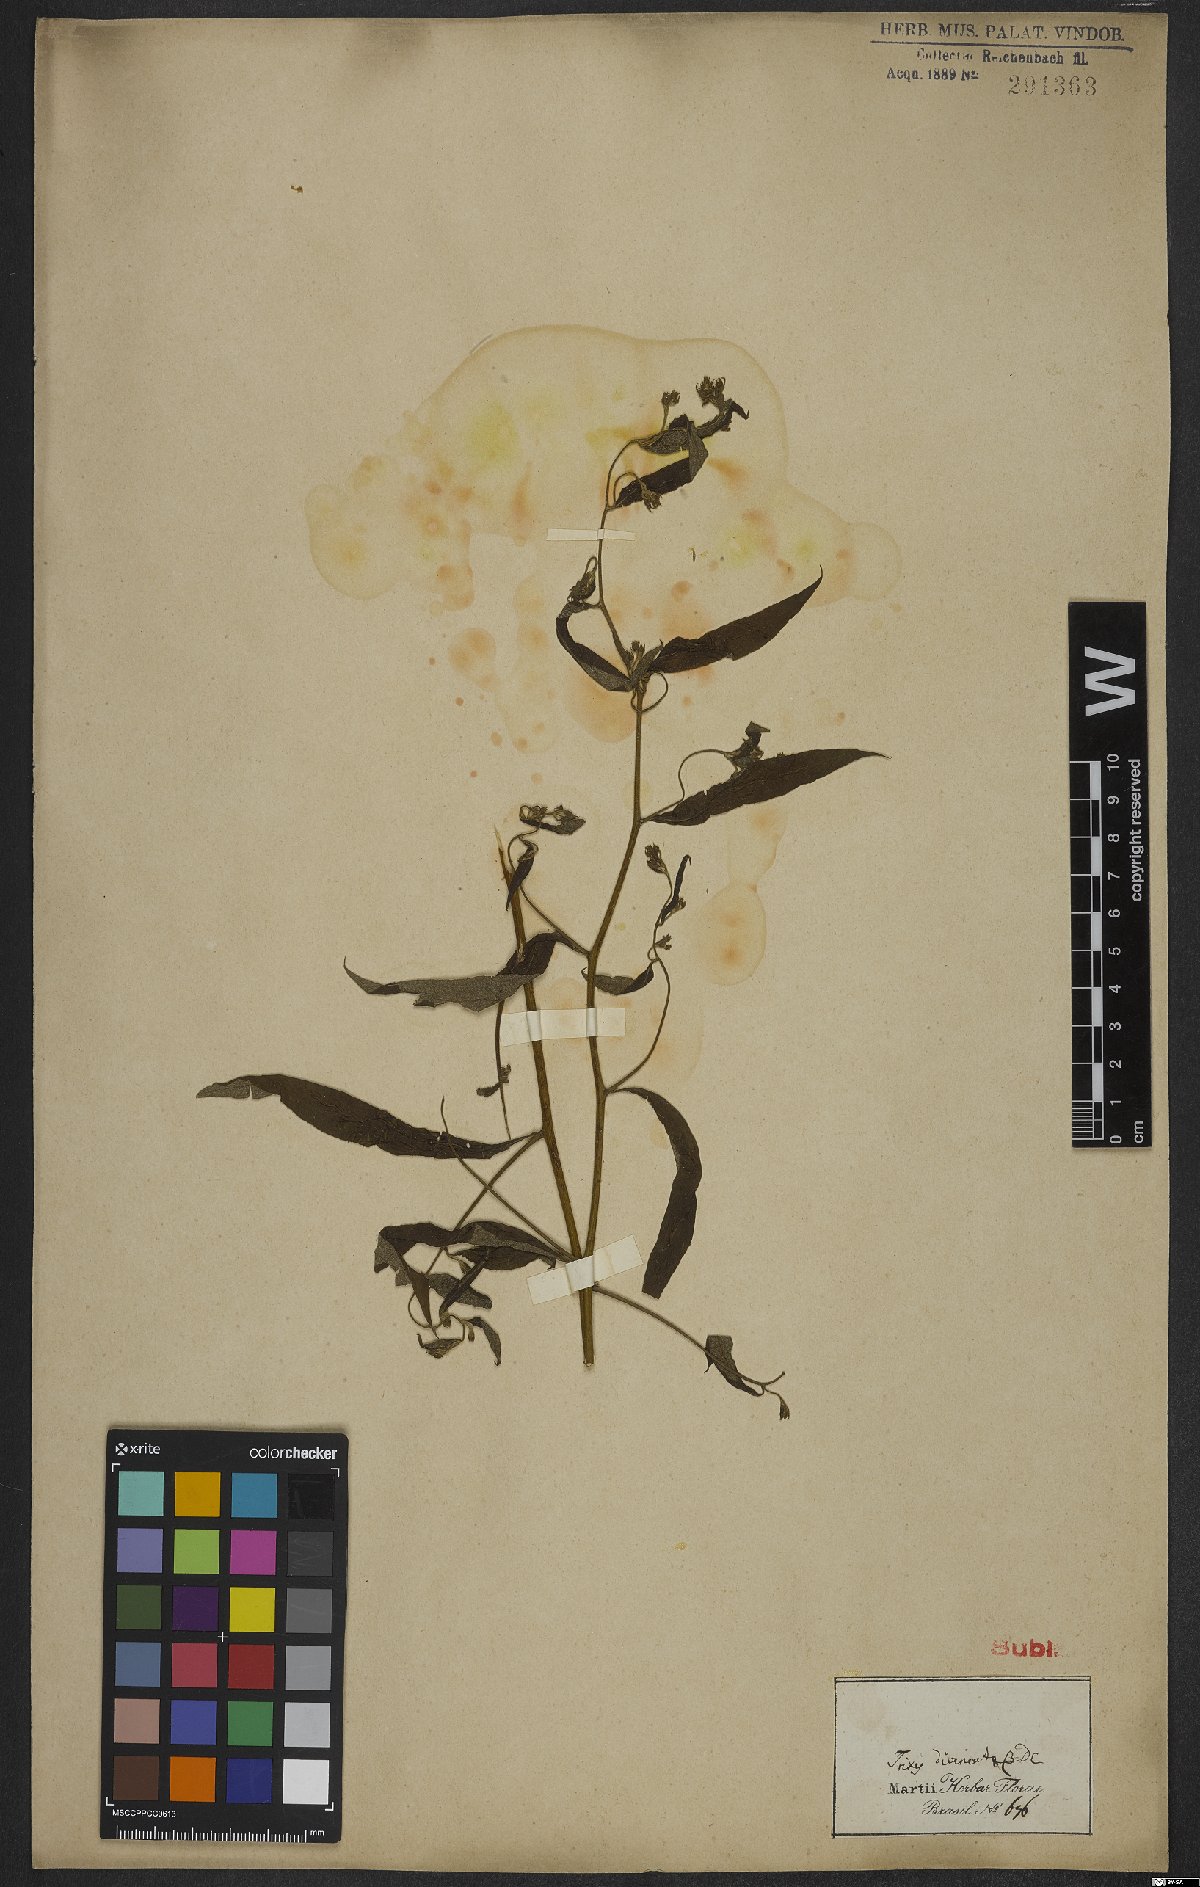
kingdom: Plantae
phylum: Tracheophyta
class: Magnoliopsida
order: Asterales
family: Asteraceae
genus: Trixis
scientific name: Trixis divaricata
